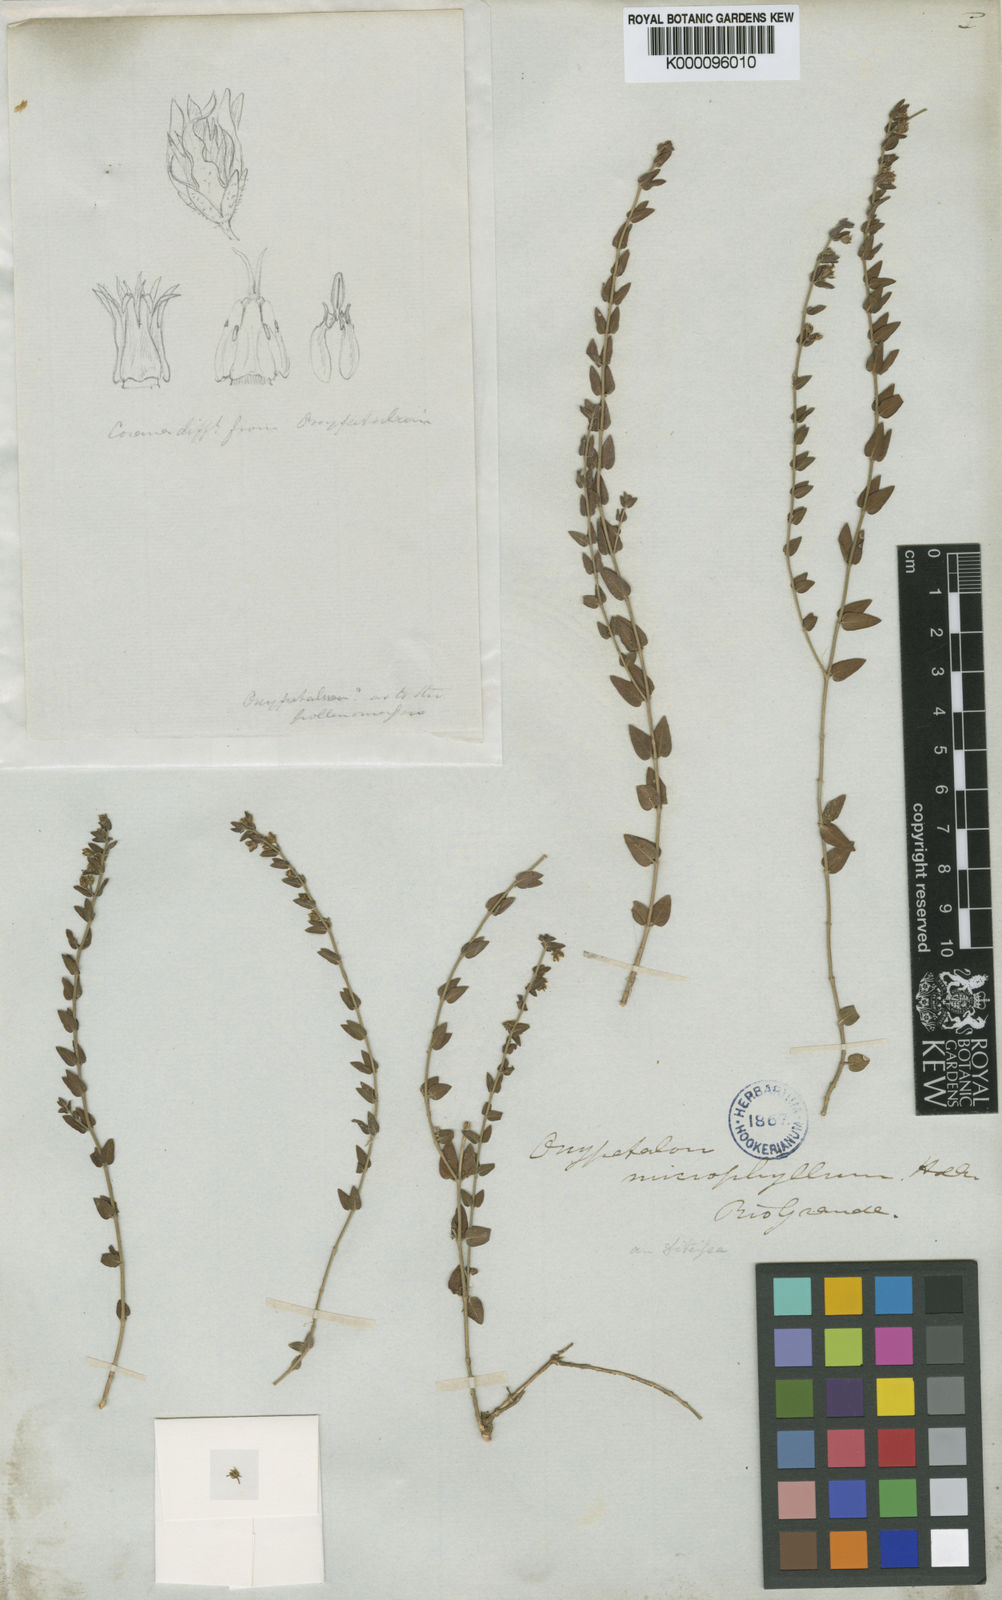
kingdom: Plantae
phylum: Tracheophyta
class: Magnoliopsida
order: Gentianales
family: Apocynaceae
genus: Oxypetalum
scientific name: Oxypetalum microphyllum
